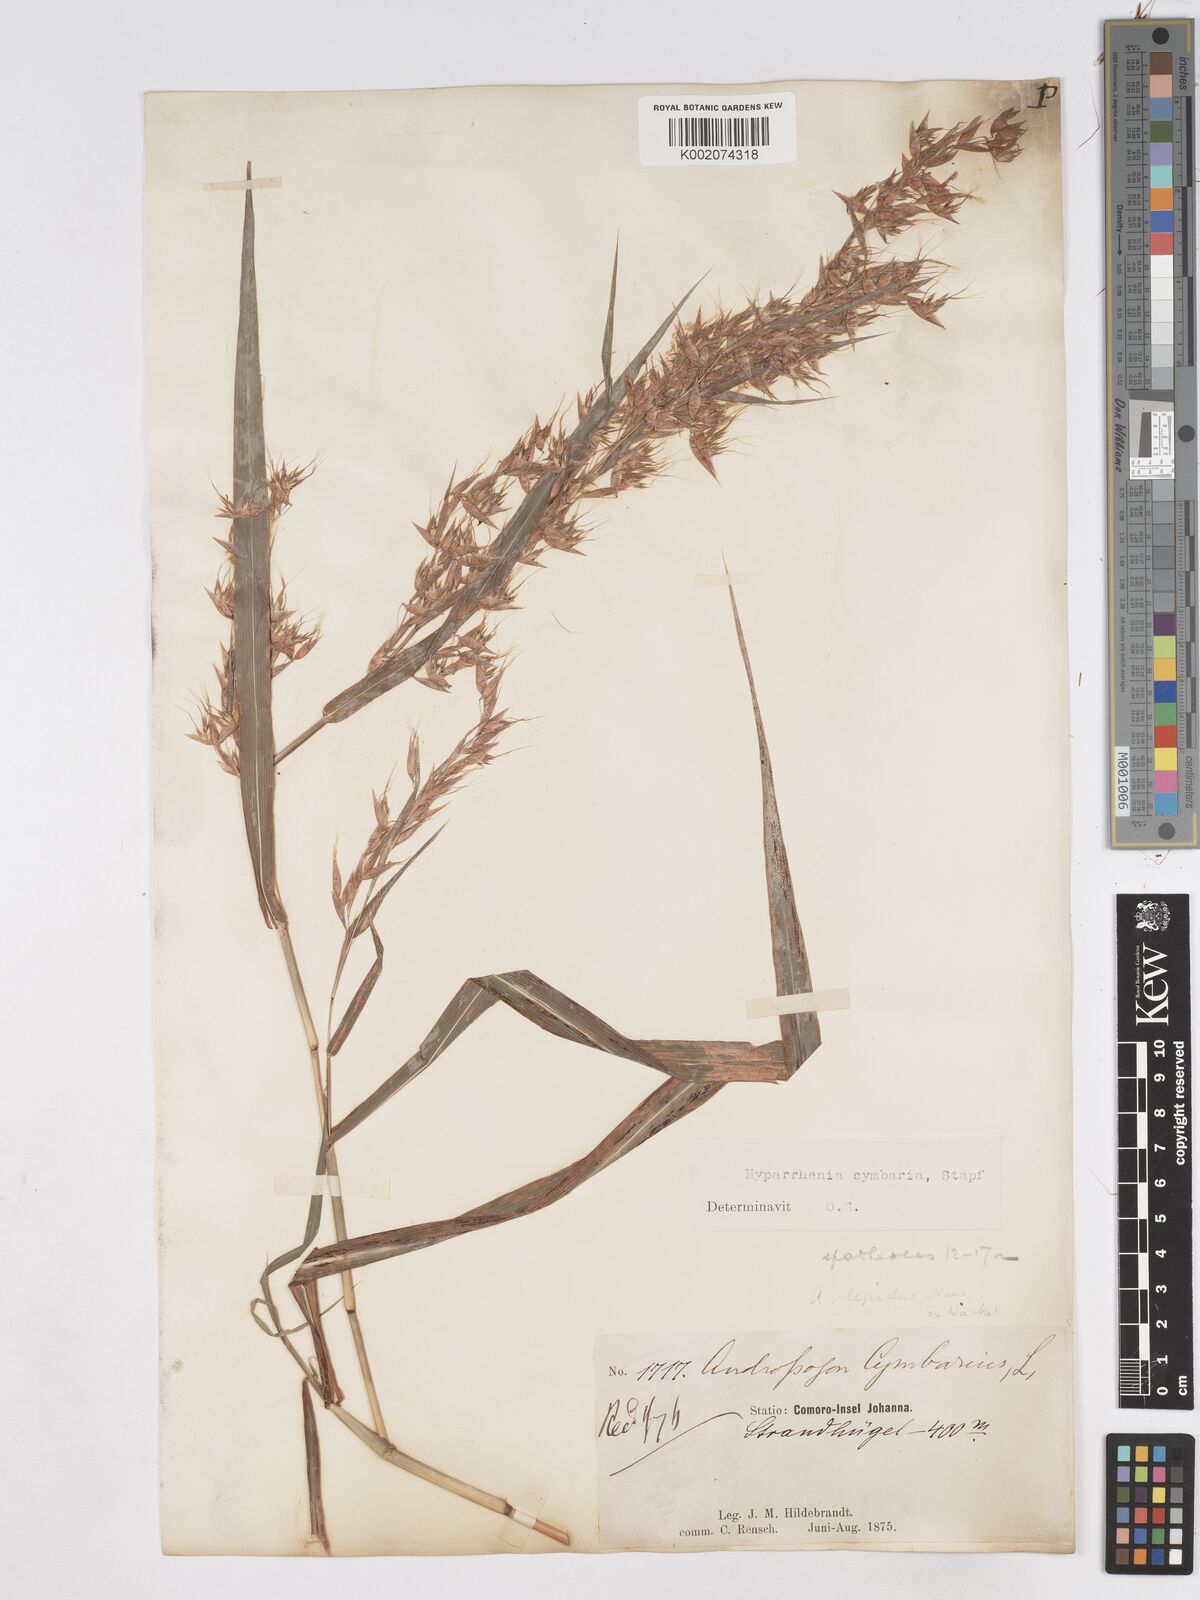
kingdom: Plantae
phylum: Tracheophyta
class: Liliopsida
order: Poales
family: Poaceae
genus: Hyparrhenia
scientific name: Hyparrhenia cymbaria
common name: Boat thatching grass
